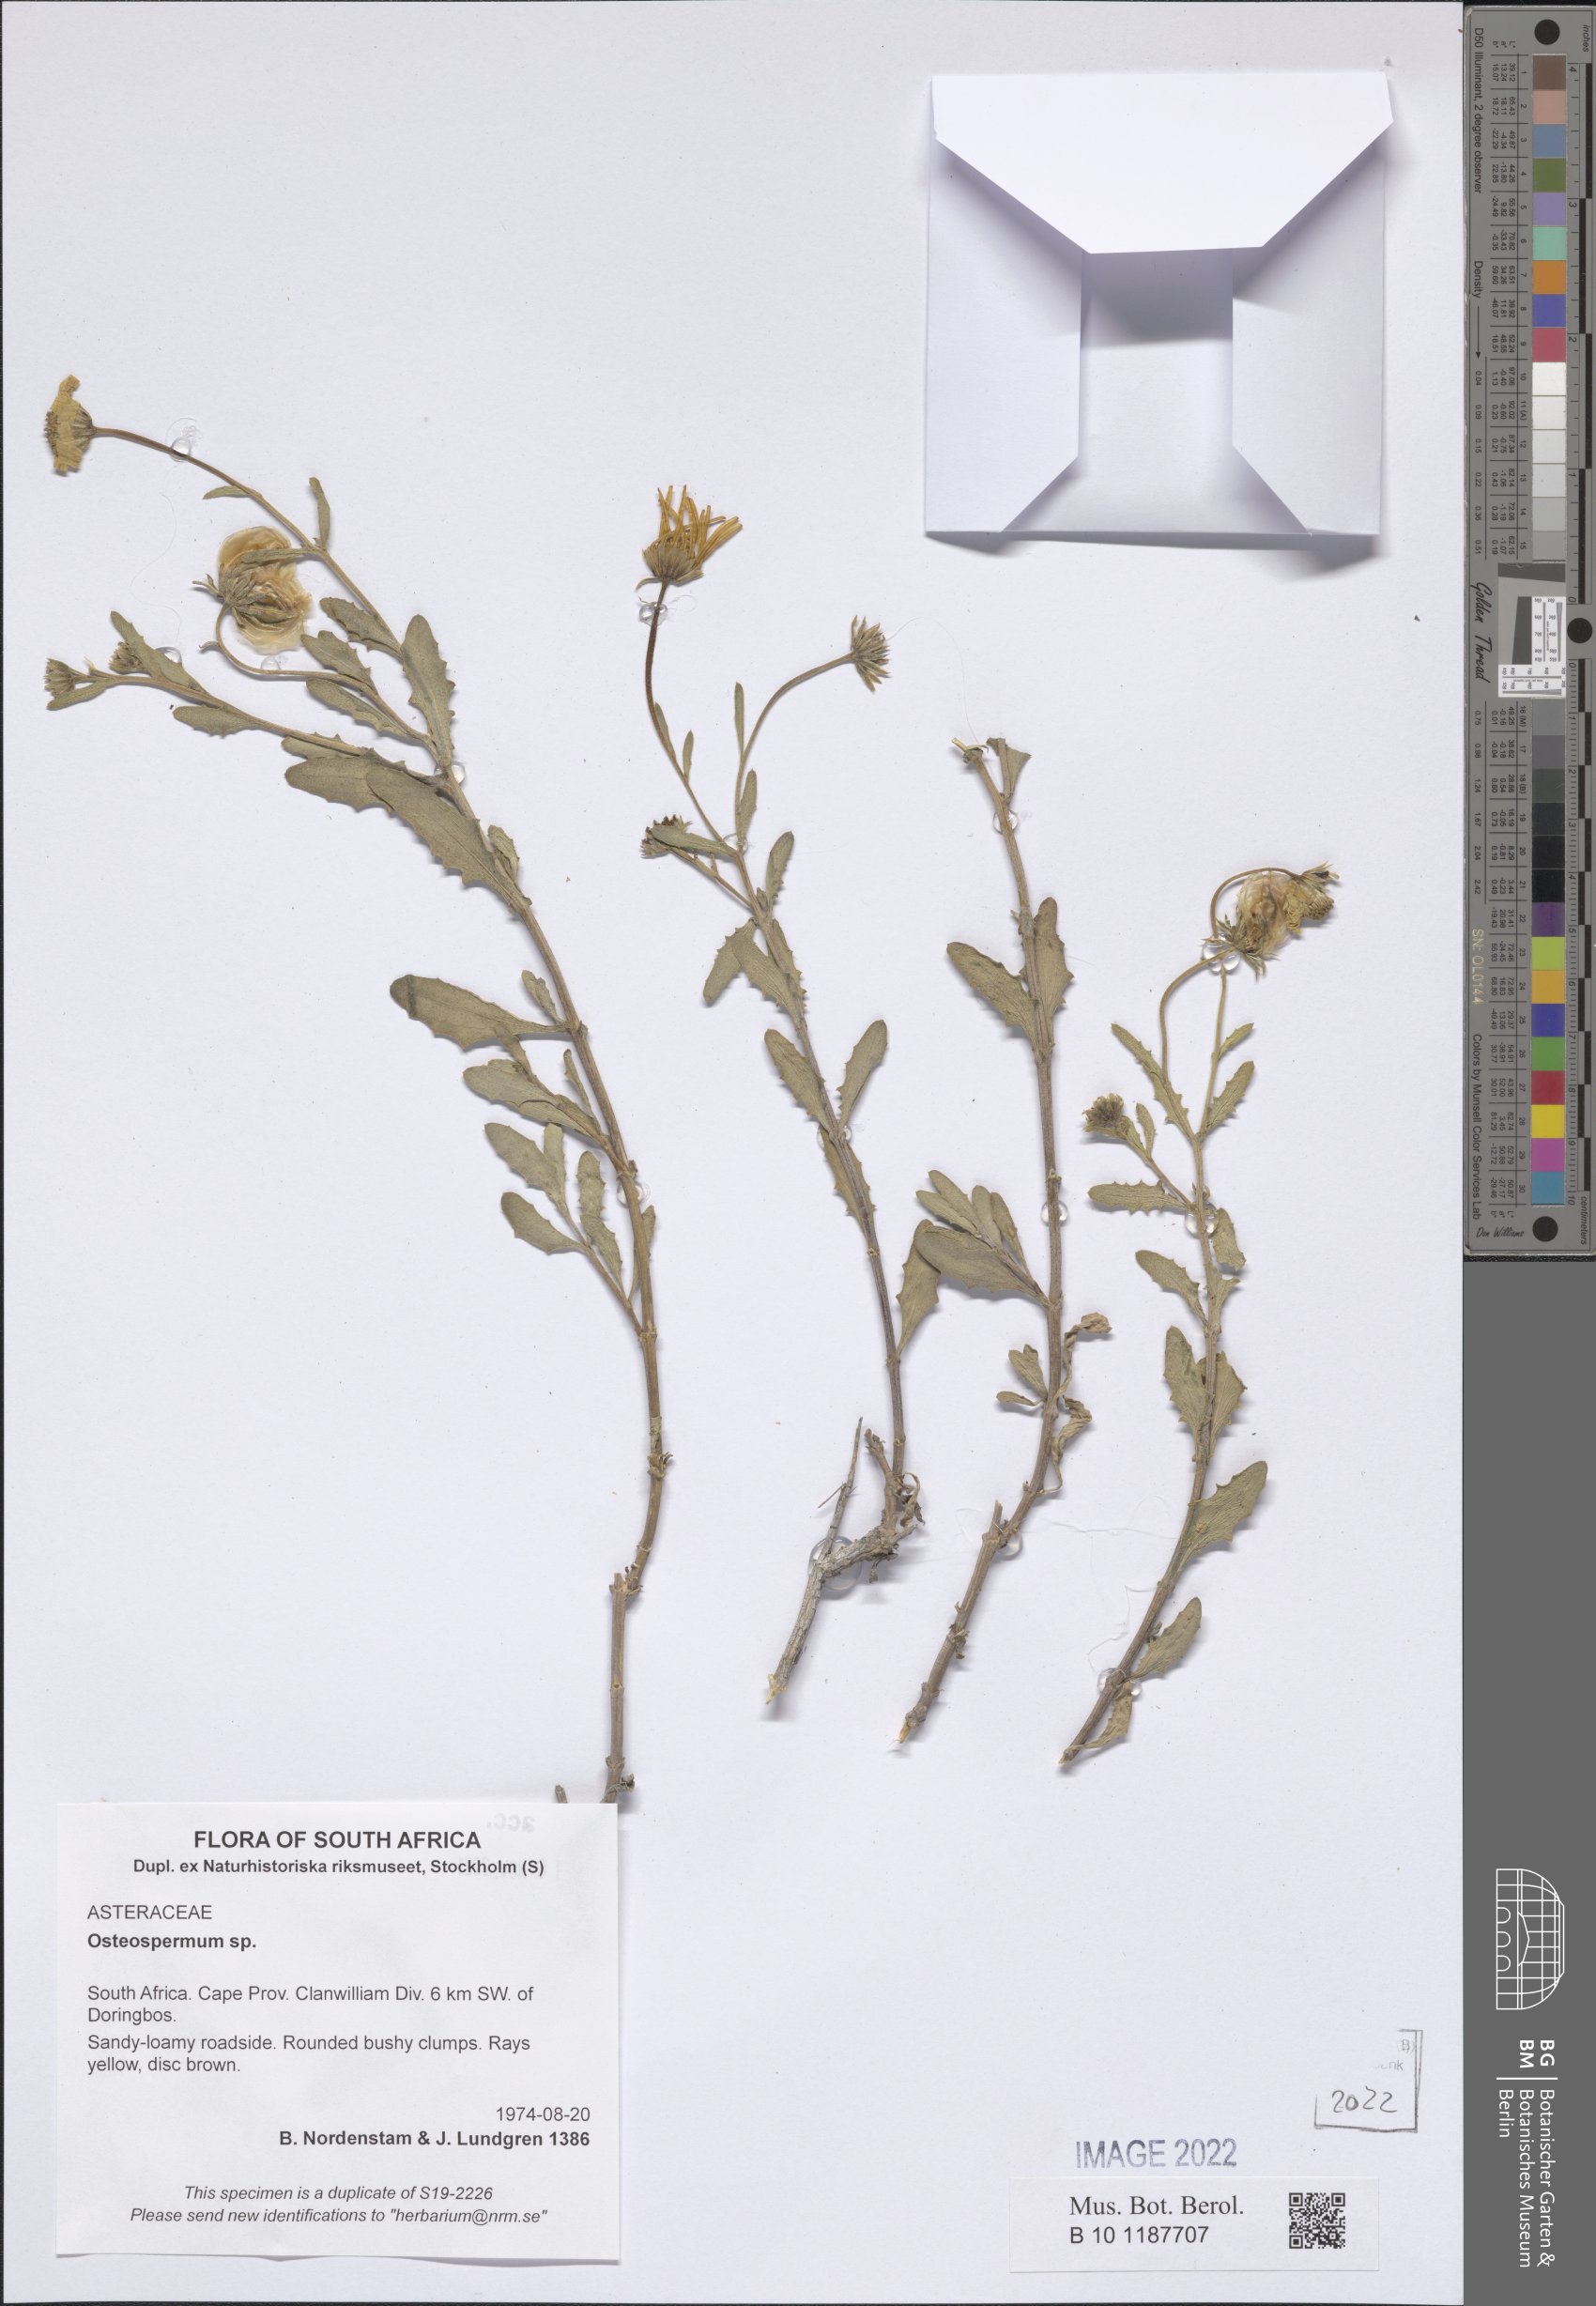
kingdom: Plantae
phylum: Tracheophyta
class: Magnoliopsida
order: Asterales
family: Asteraceae
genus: Osteospermum
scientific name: Osteospermum
